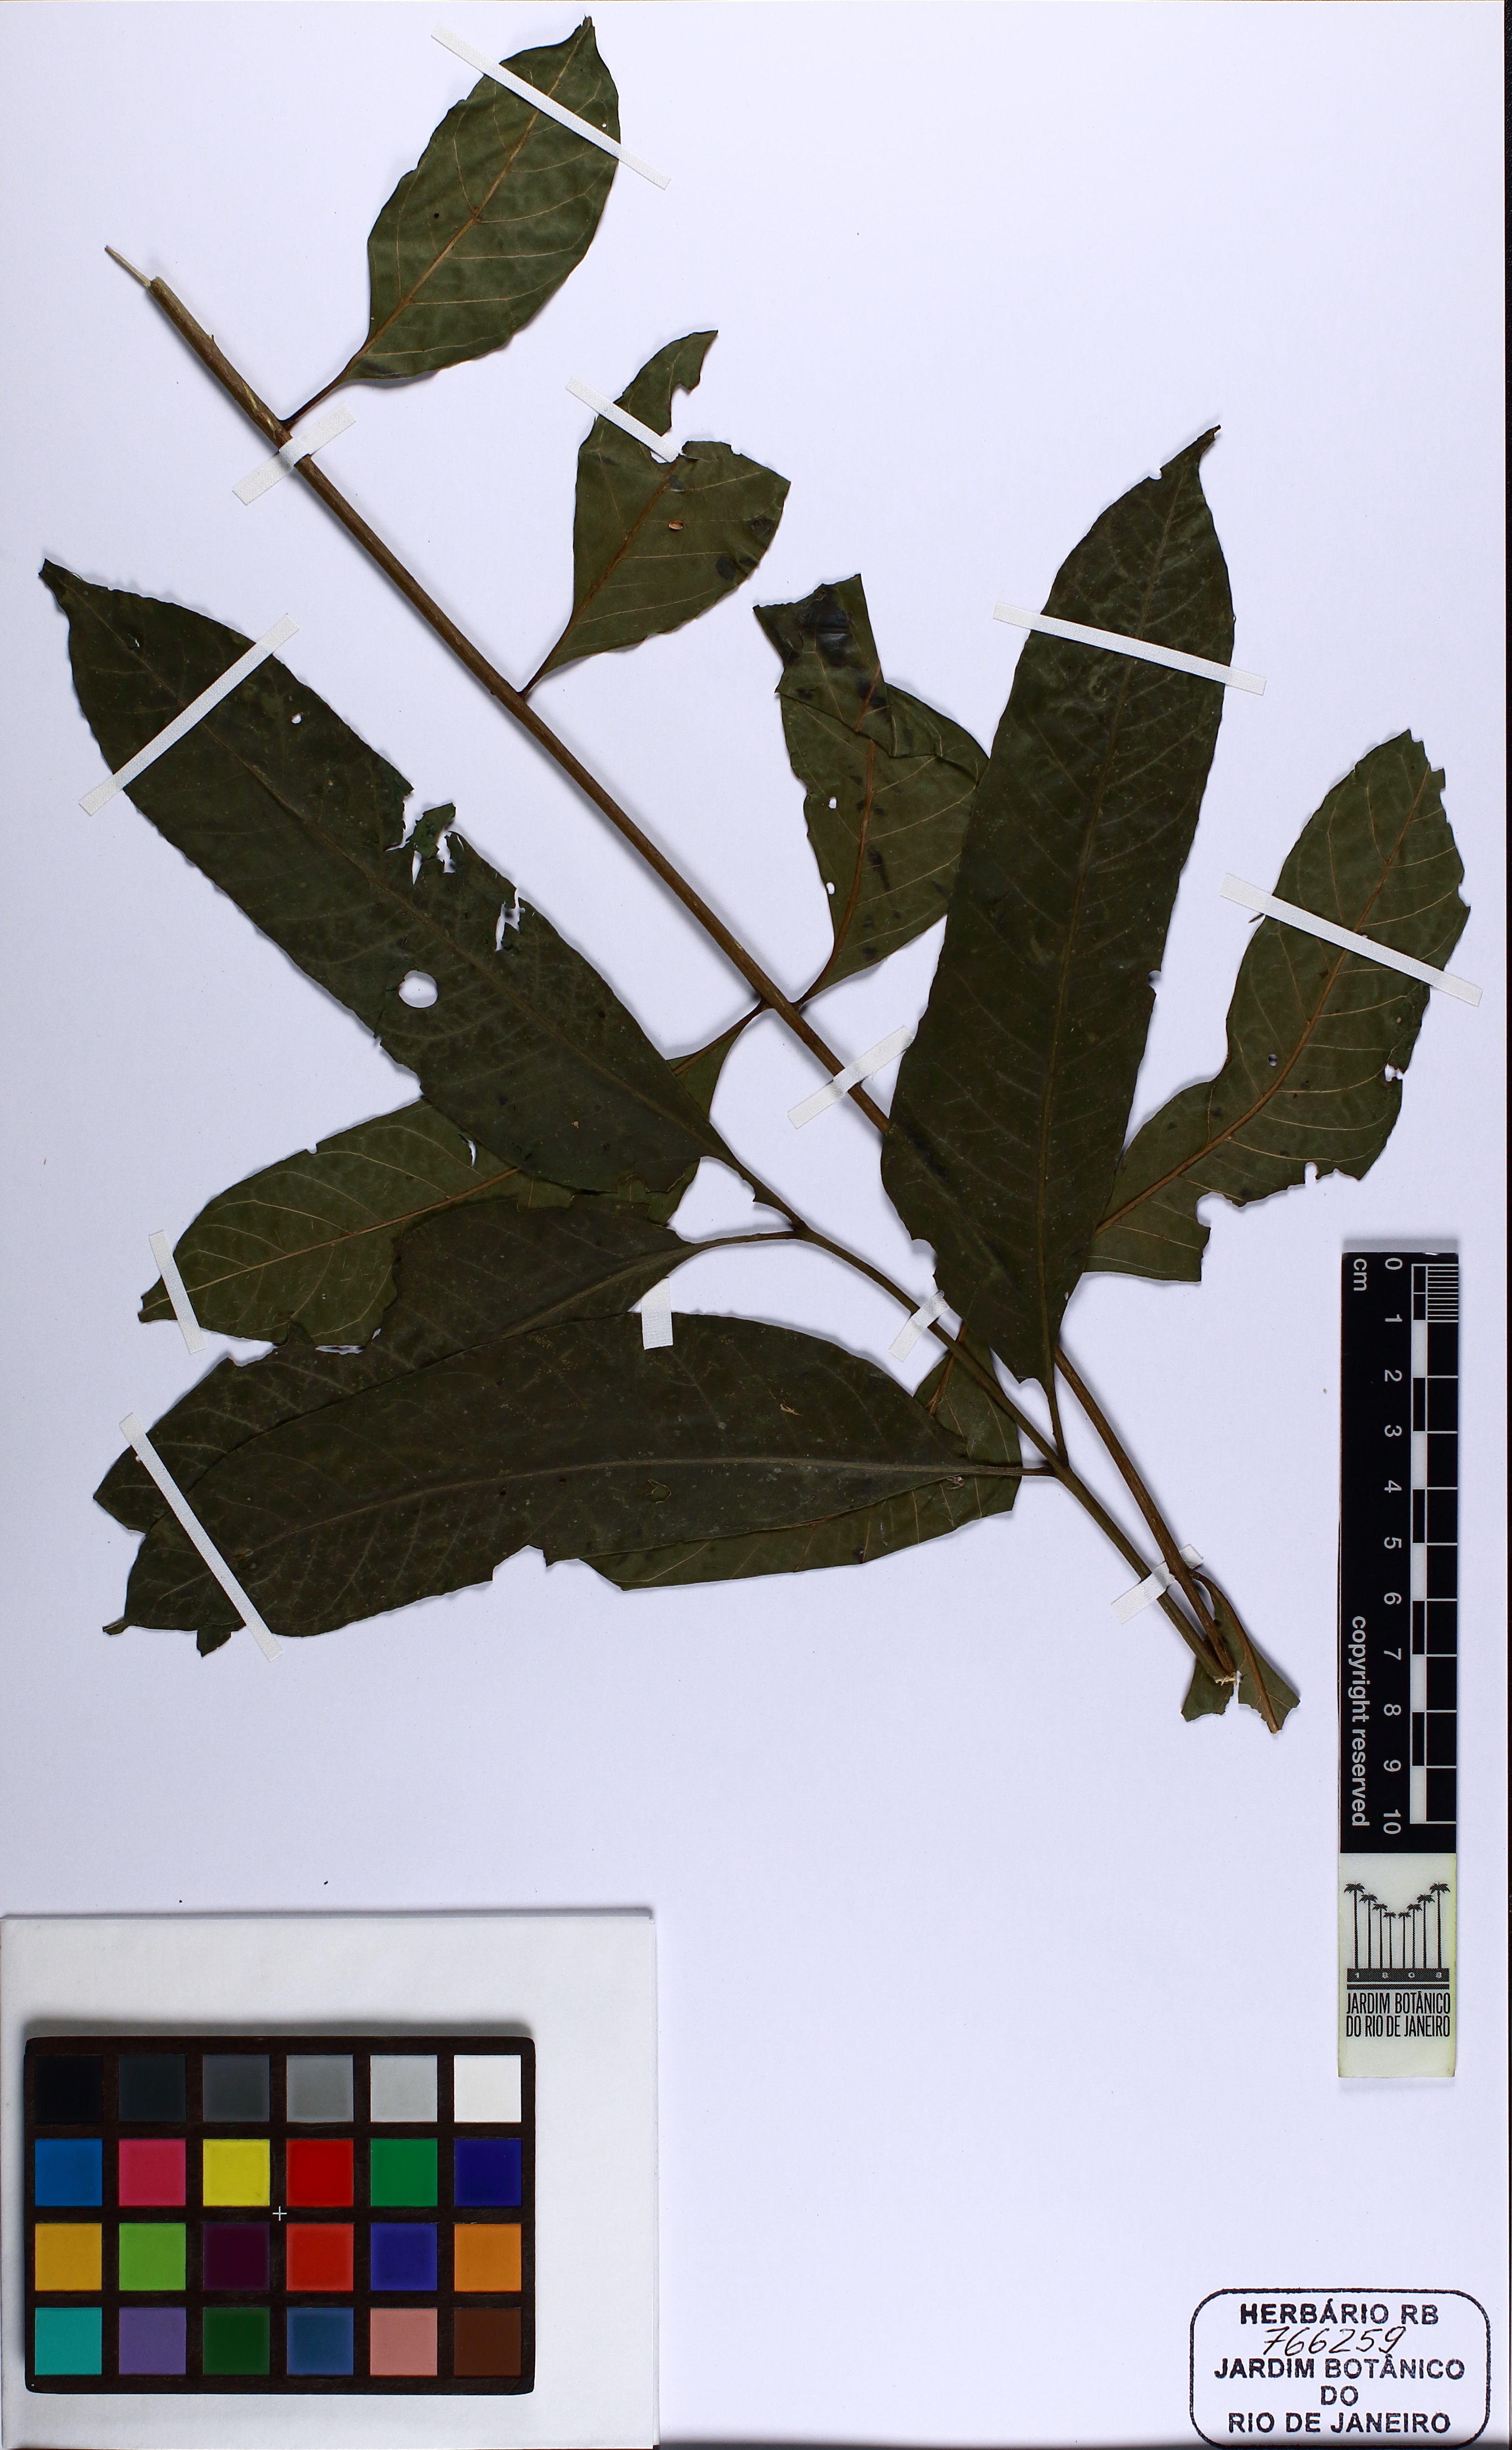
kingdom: Plantae
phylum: Tracheophyta
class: Magnoliopsida
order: Sapindales
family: Meliaceae
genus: Cabralea
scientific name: Cabralea canjerana
